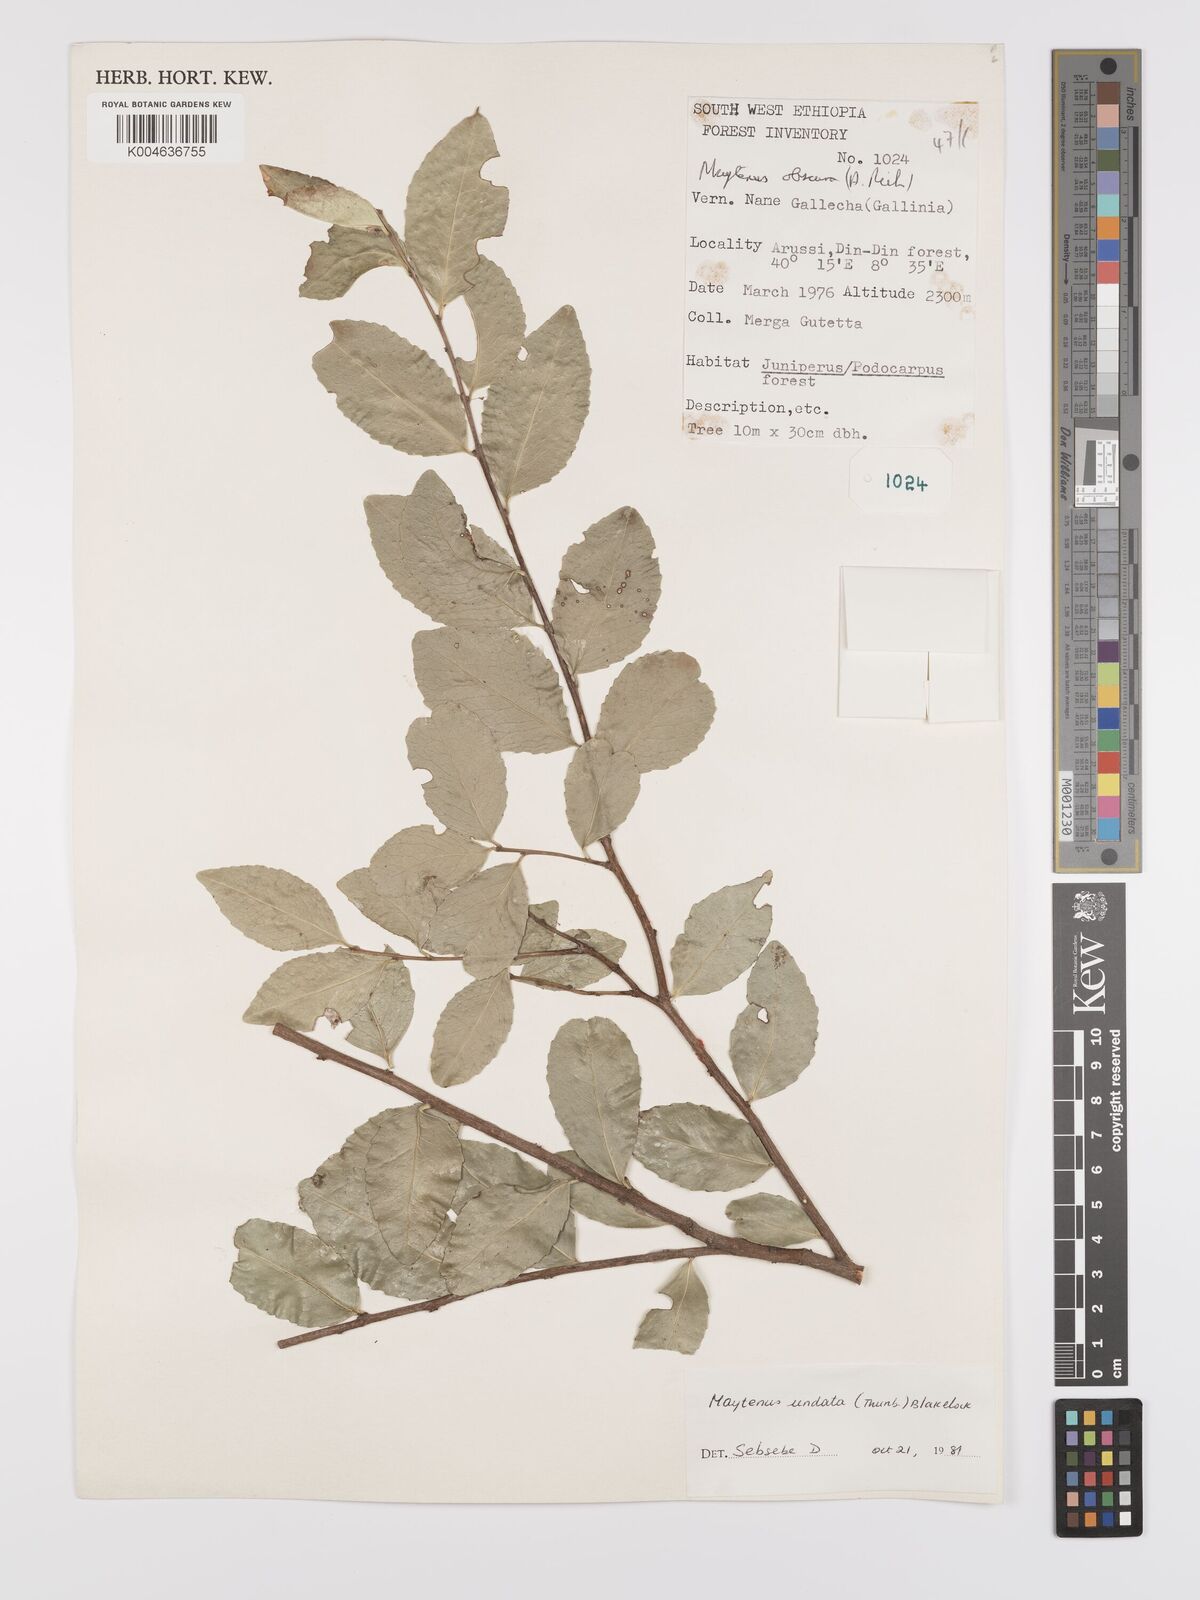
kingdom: Plantae
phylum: Tracheophyta
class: Magnoliopsida
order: Celastrales
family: Celastraceae
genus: Gymnosporia
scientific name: Gymnosporia undata
